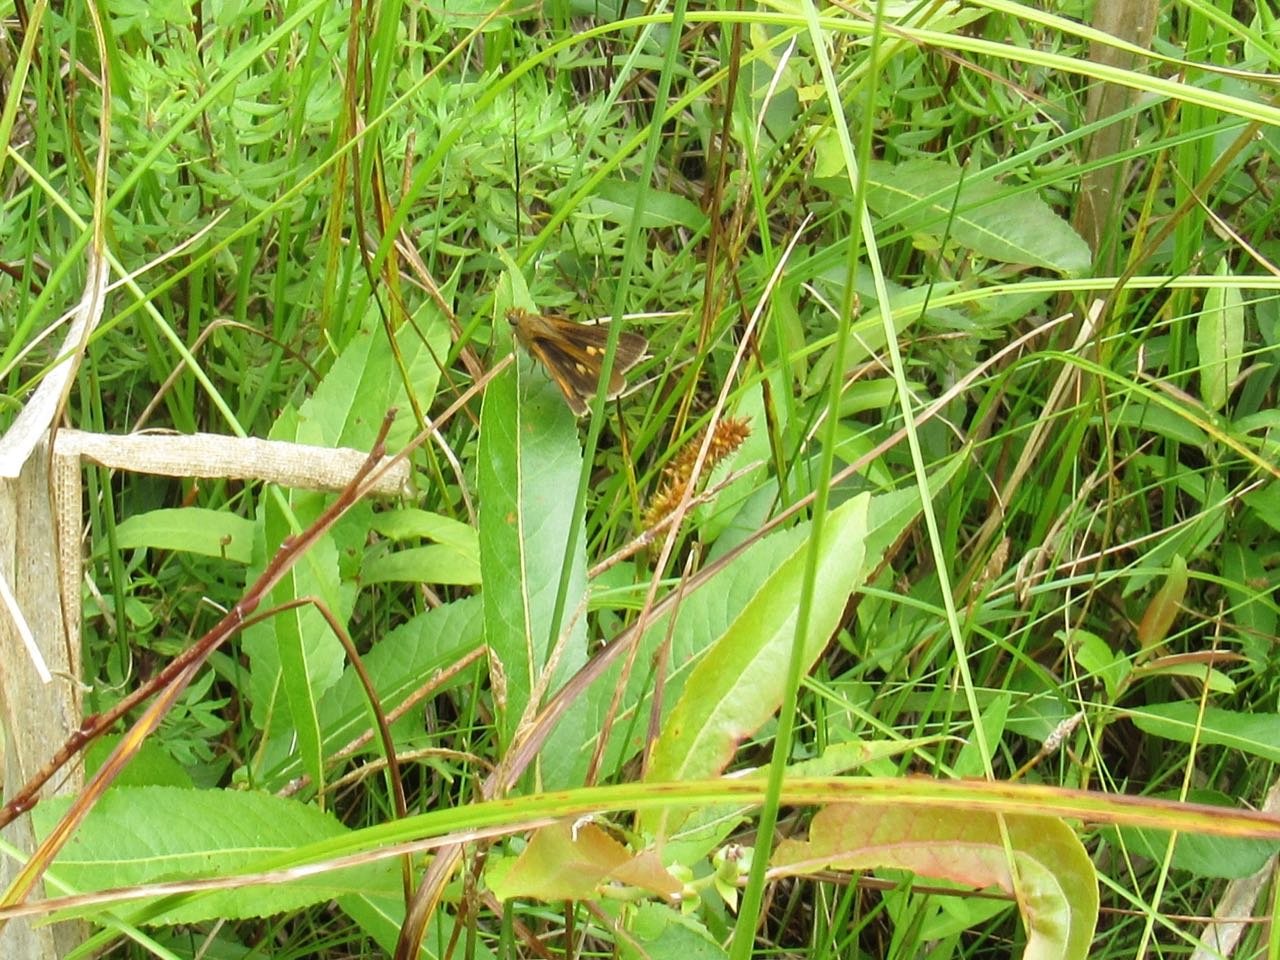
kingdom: Animalia
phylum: Arthropoda
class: Insecta
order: Lepidoptera
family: Hesperiidae
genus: Euphyes
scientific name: Euphyes dion
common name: Dion Skipper
